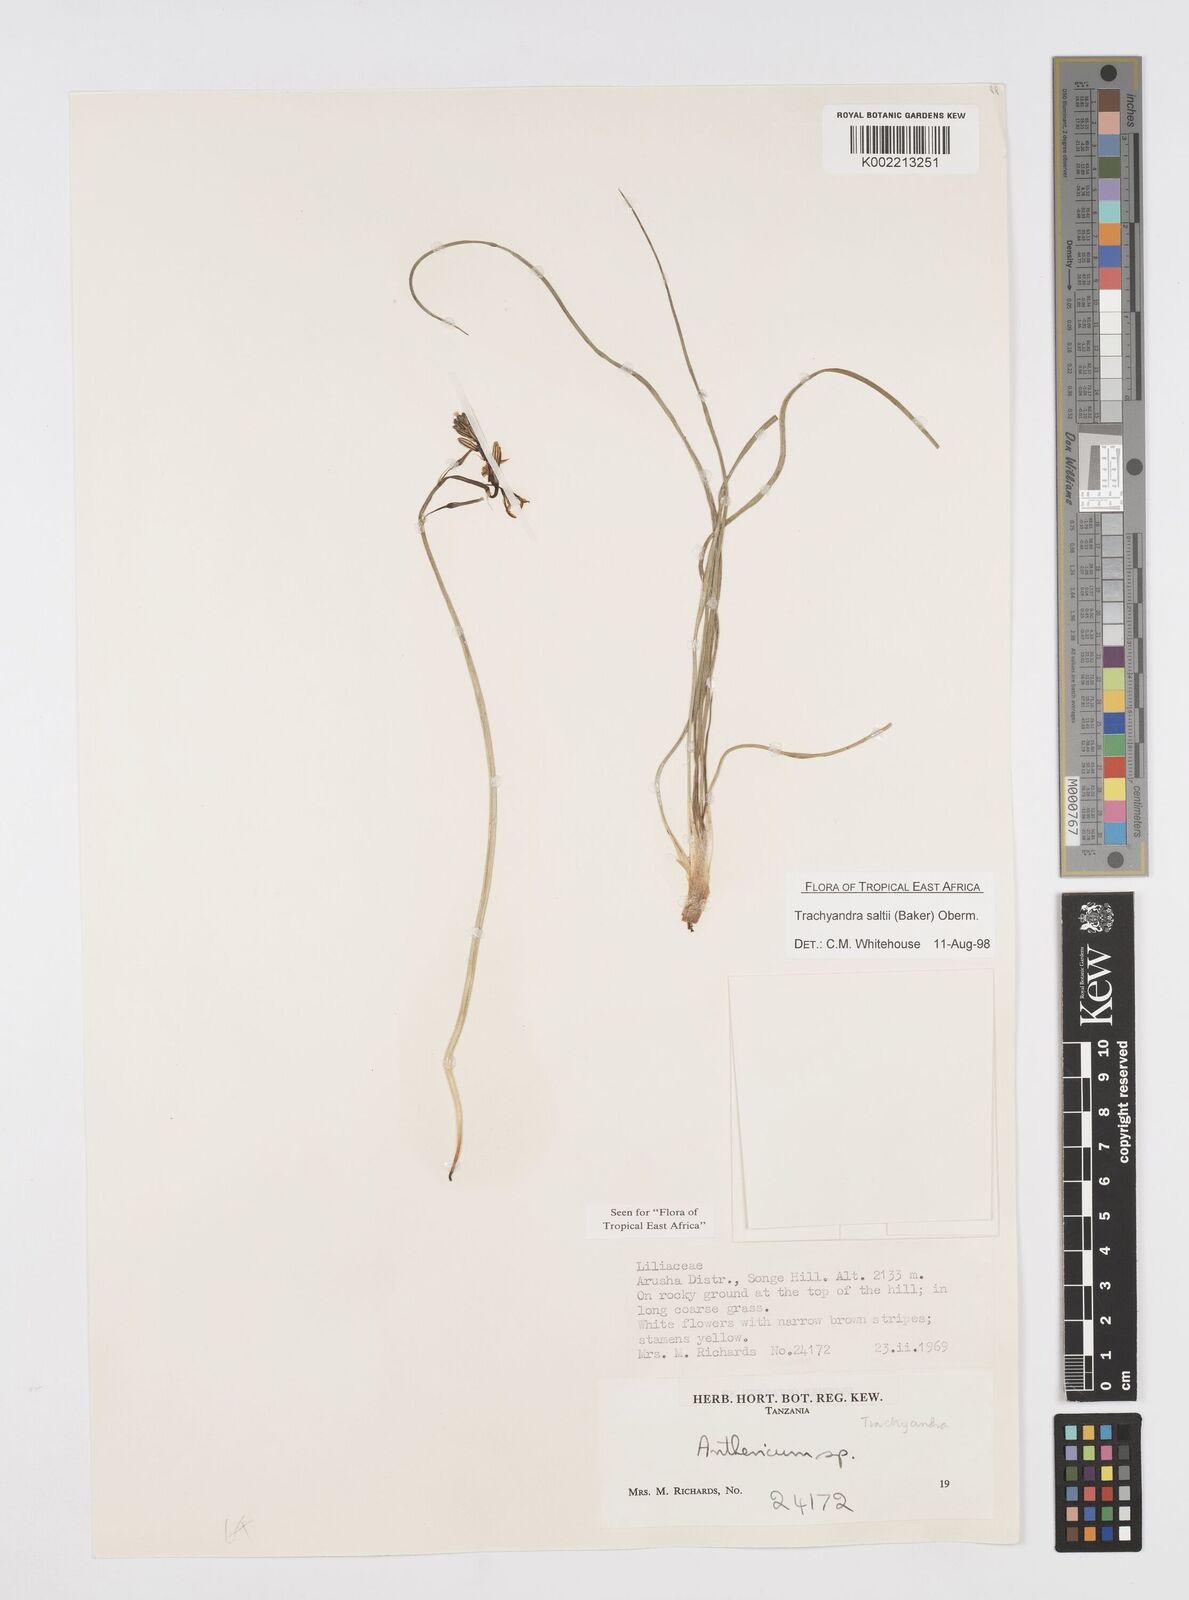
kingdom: Plantae
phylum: Tracheophyta
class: Liliopsida
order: Asparagales
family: Asphodelaceae
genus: Trachyandra
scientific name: Trachyandra saltii
